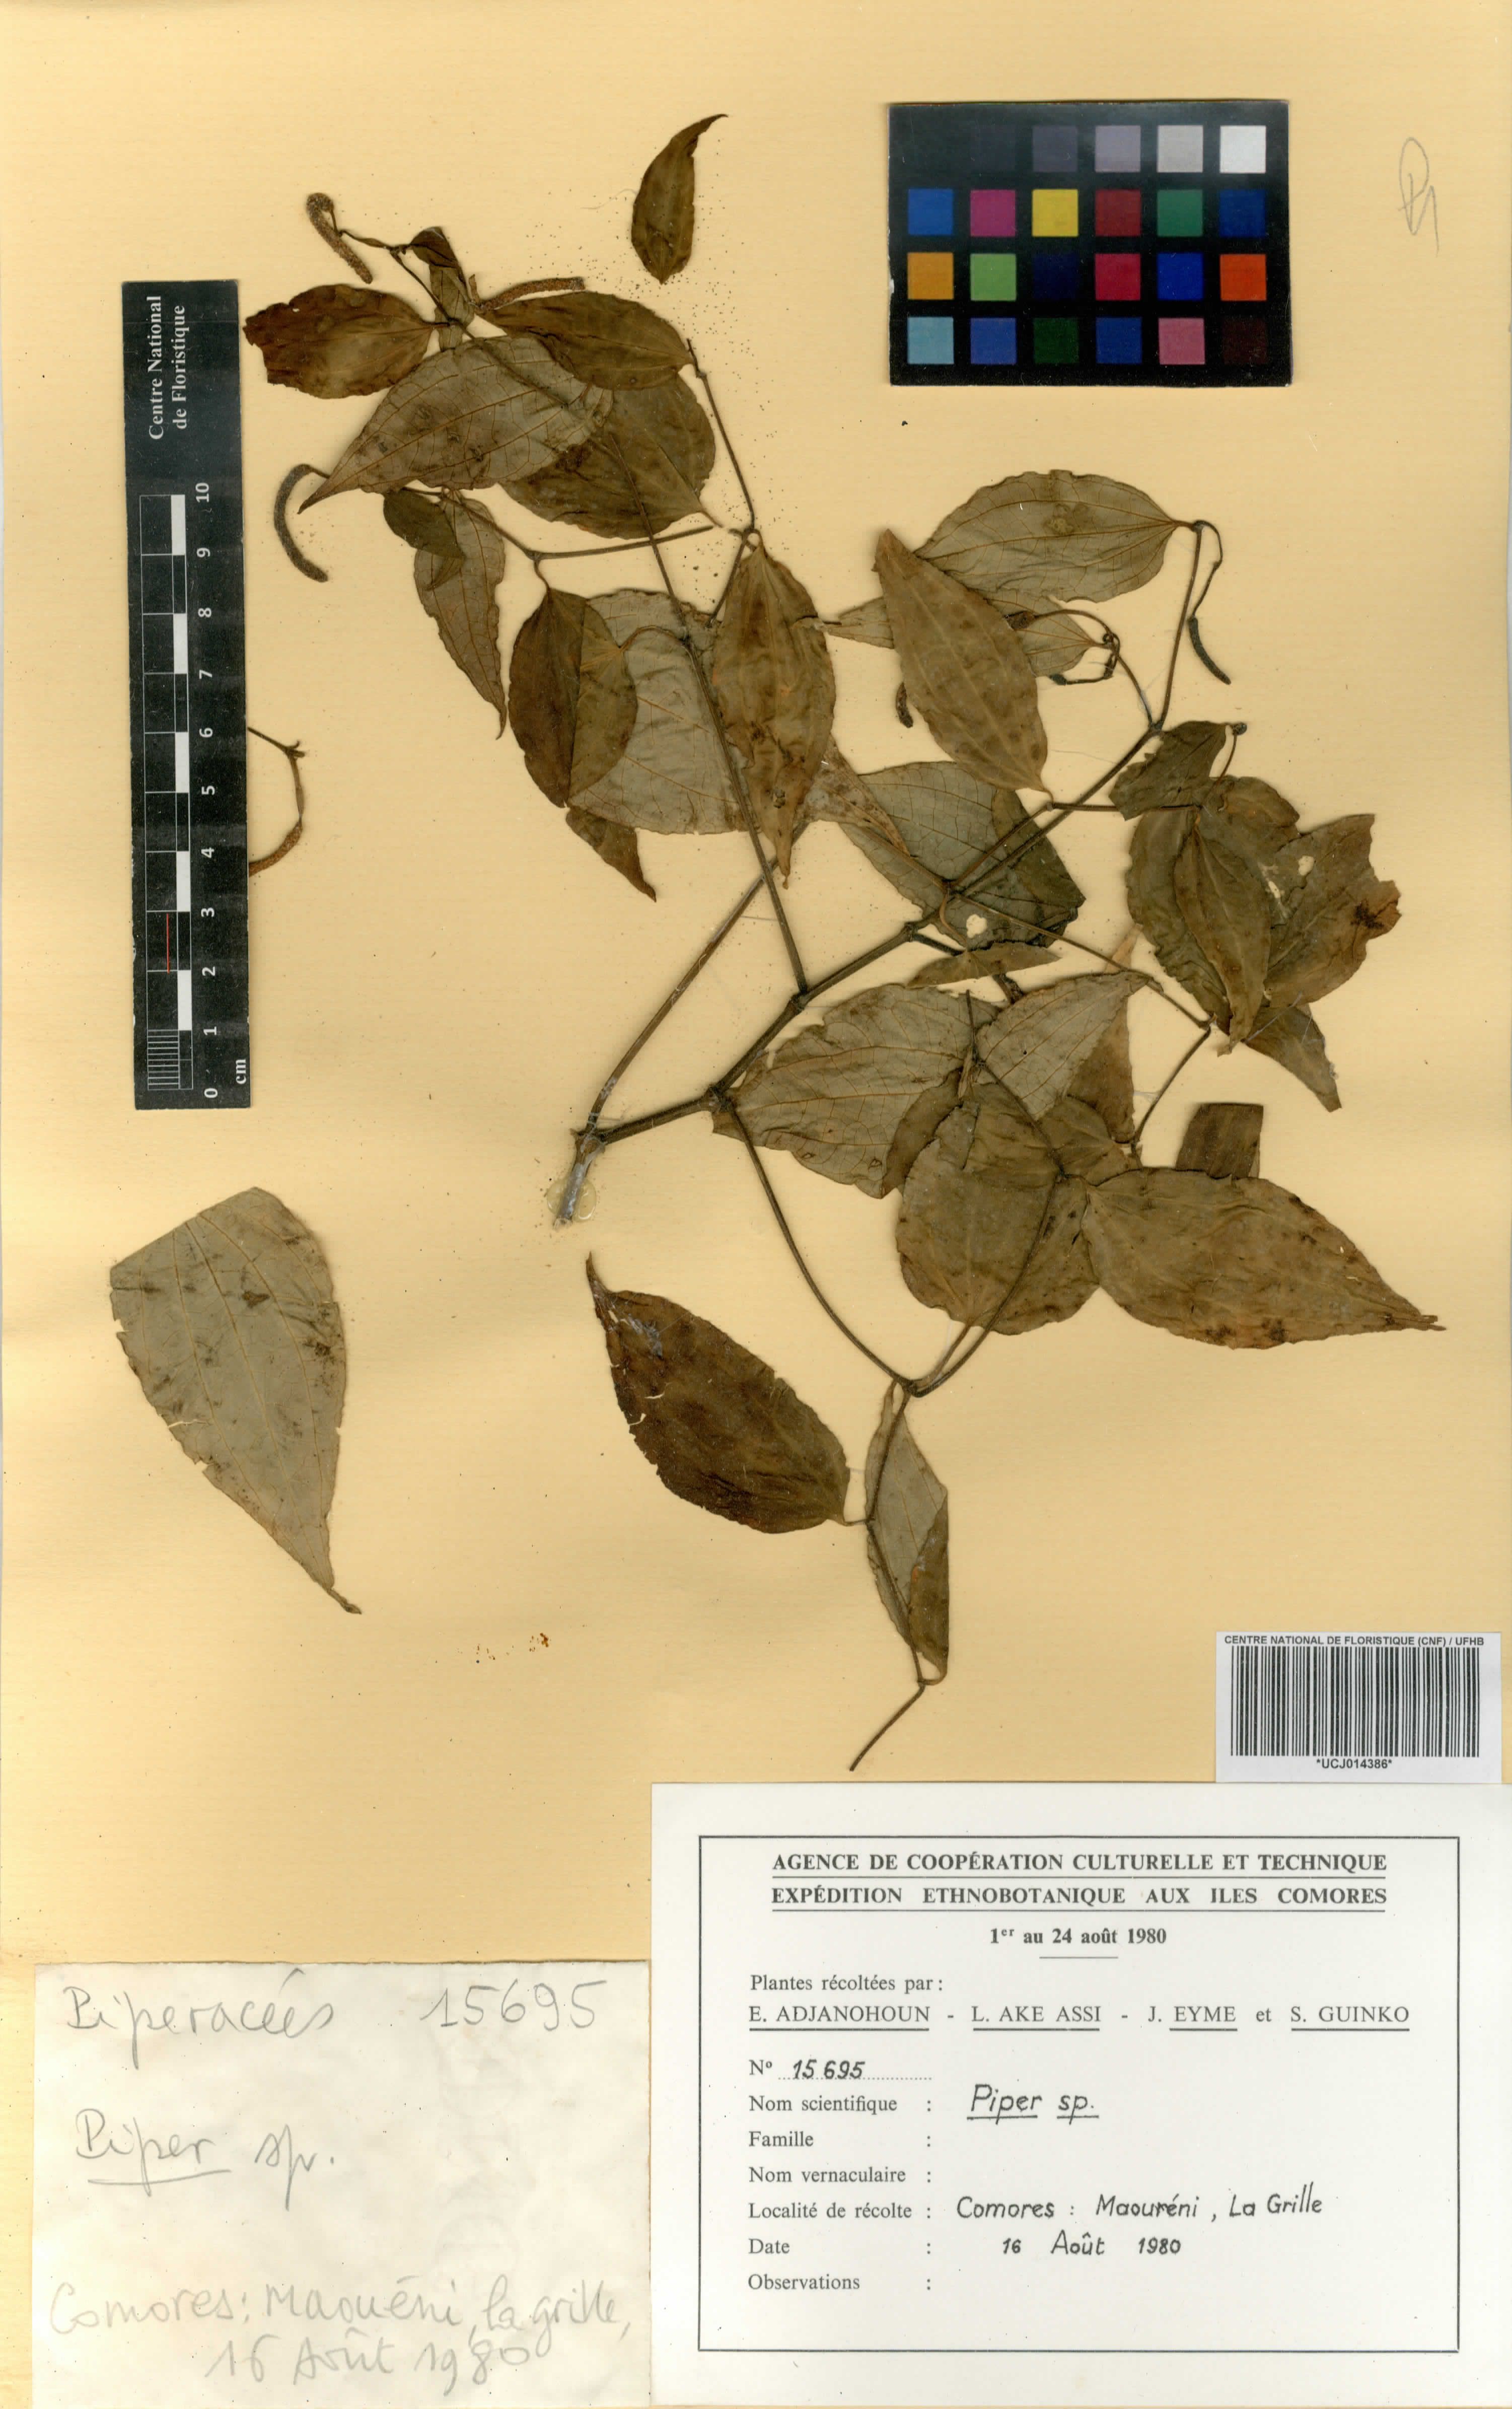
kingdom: Plantae
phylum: Tracheophyta
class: Magnoliopsida
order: Piperales
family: Piperaceae
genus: Piper
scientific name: Piper
